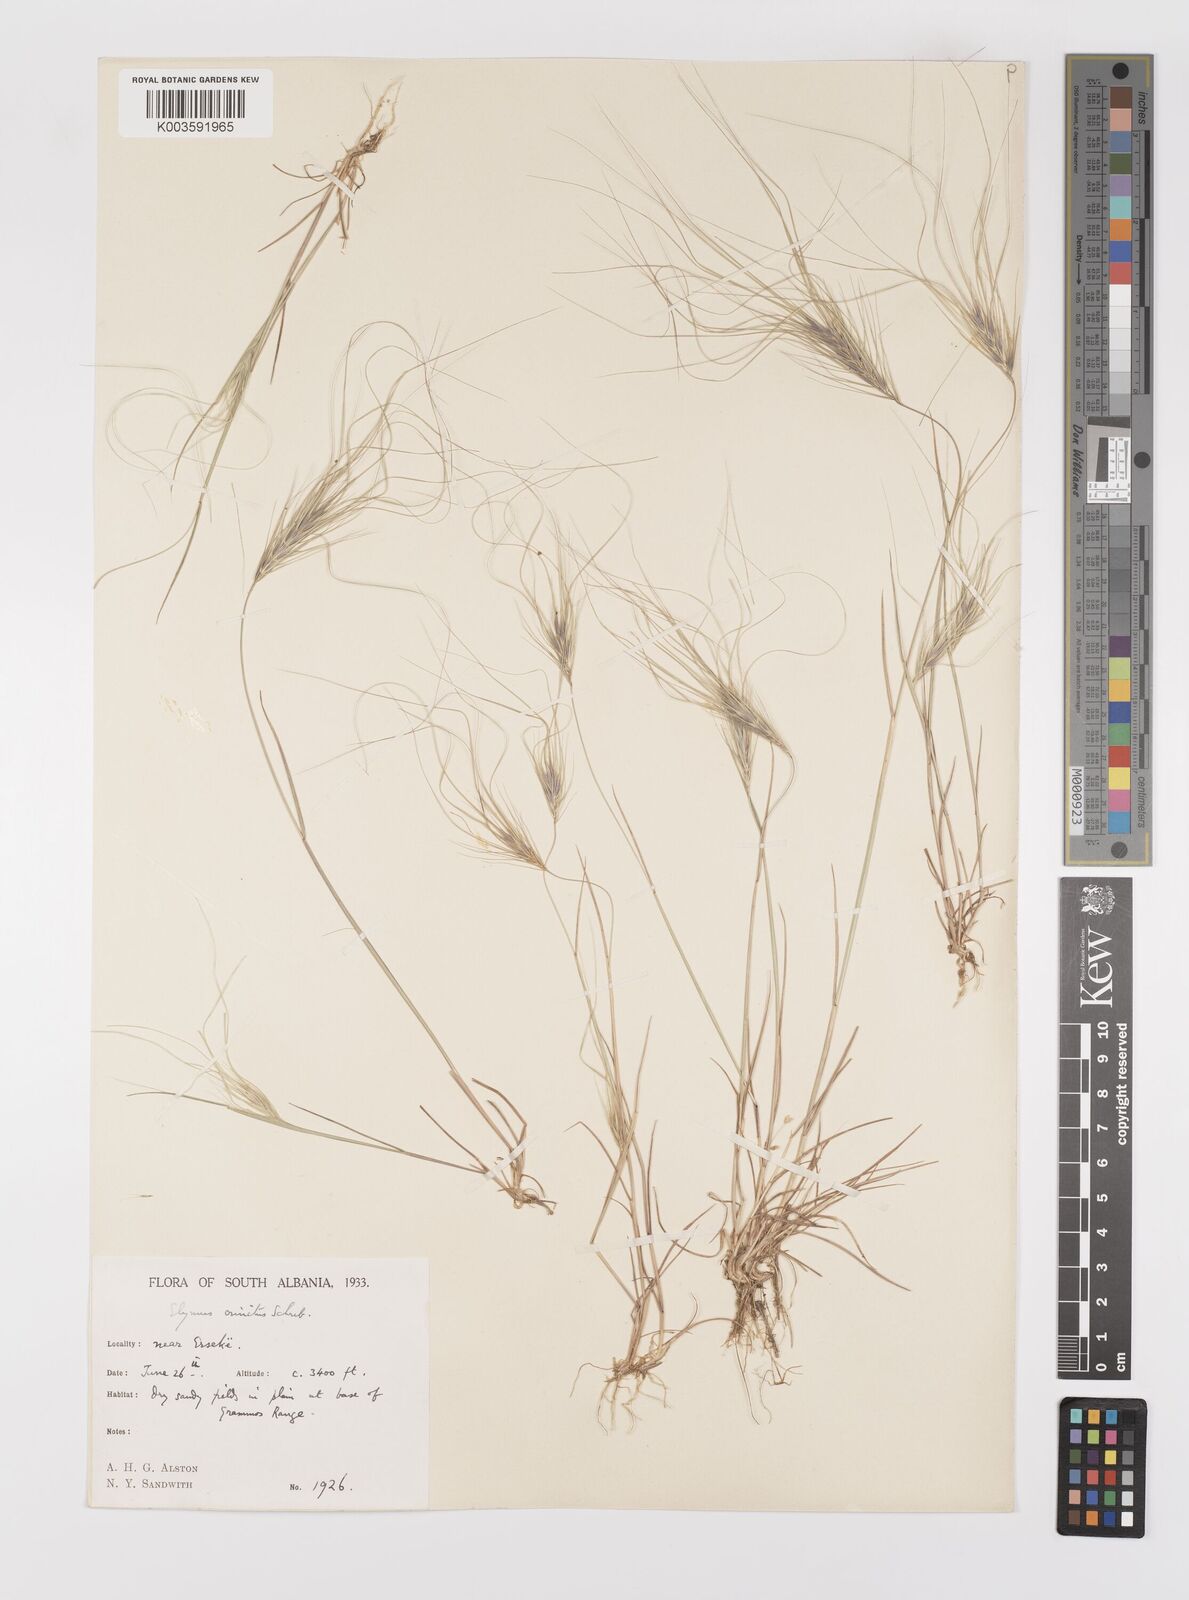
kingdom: Plantae
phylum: Tracheophyta
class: Liliopsida
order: Poales
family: Poaceae
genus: Taeniatherum
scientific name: Taeniatherum caput-medusae
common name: Medusahead
